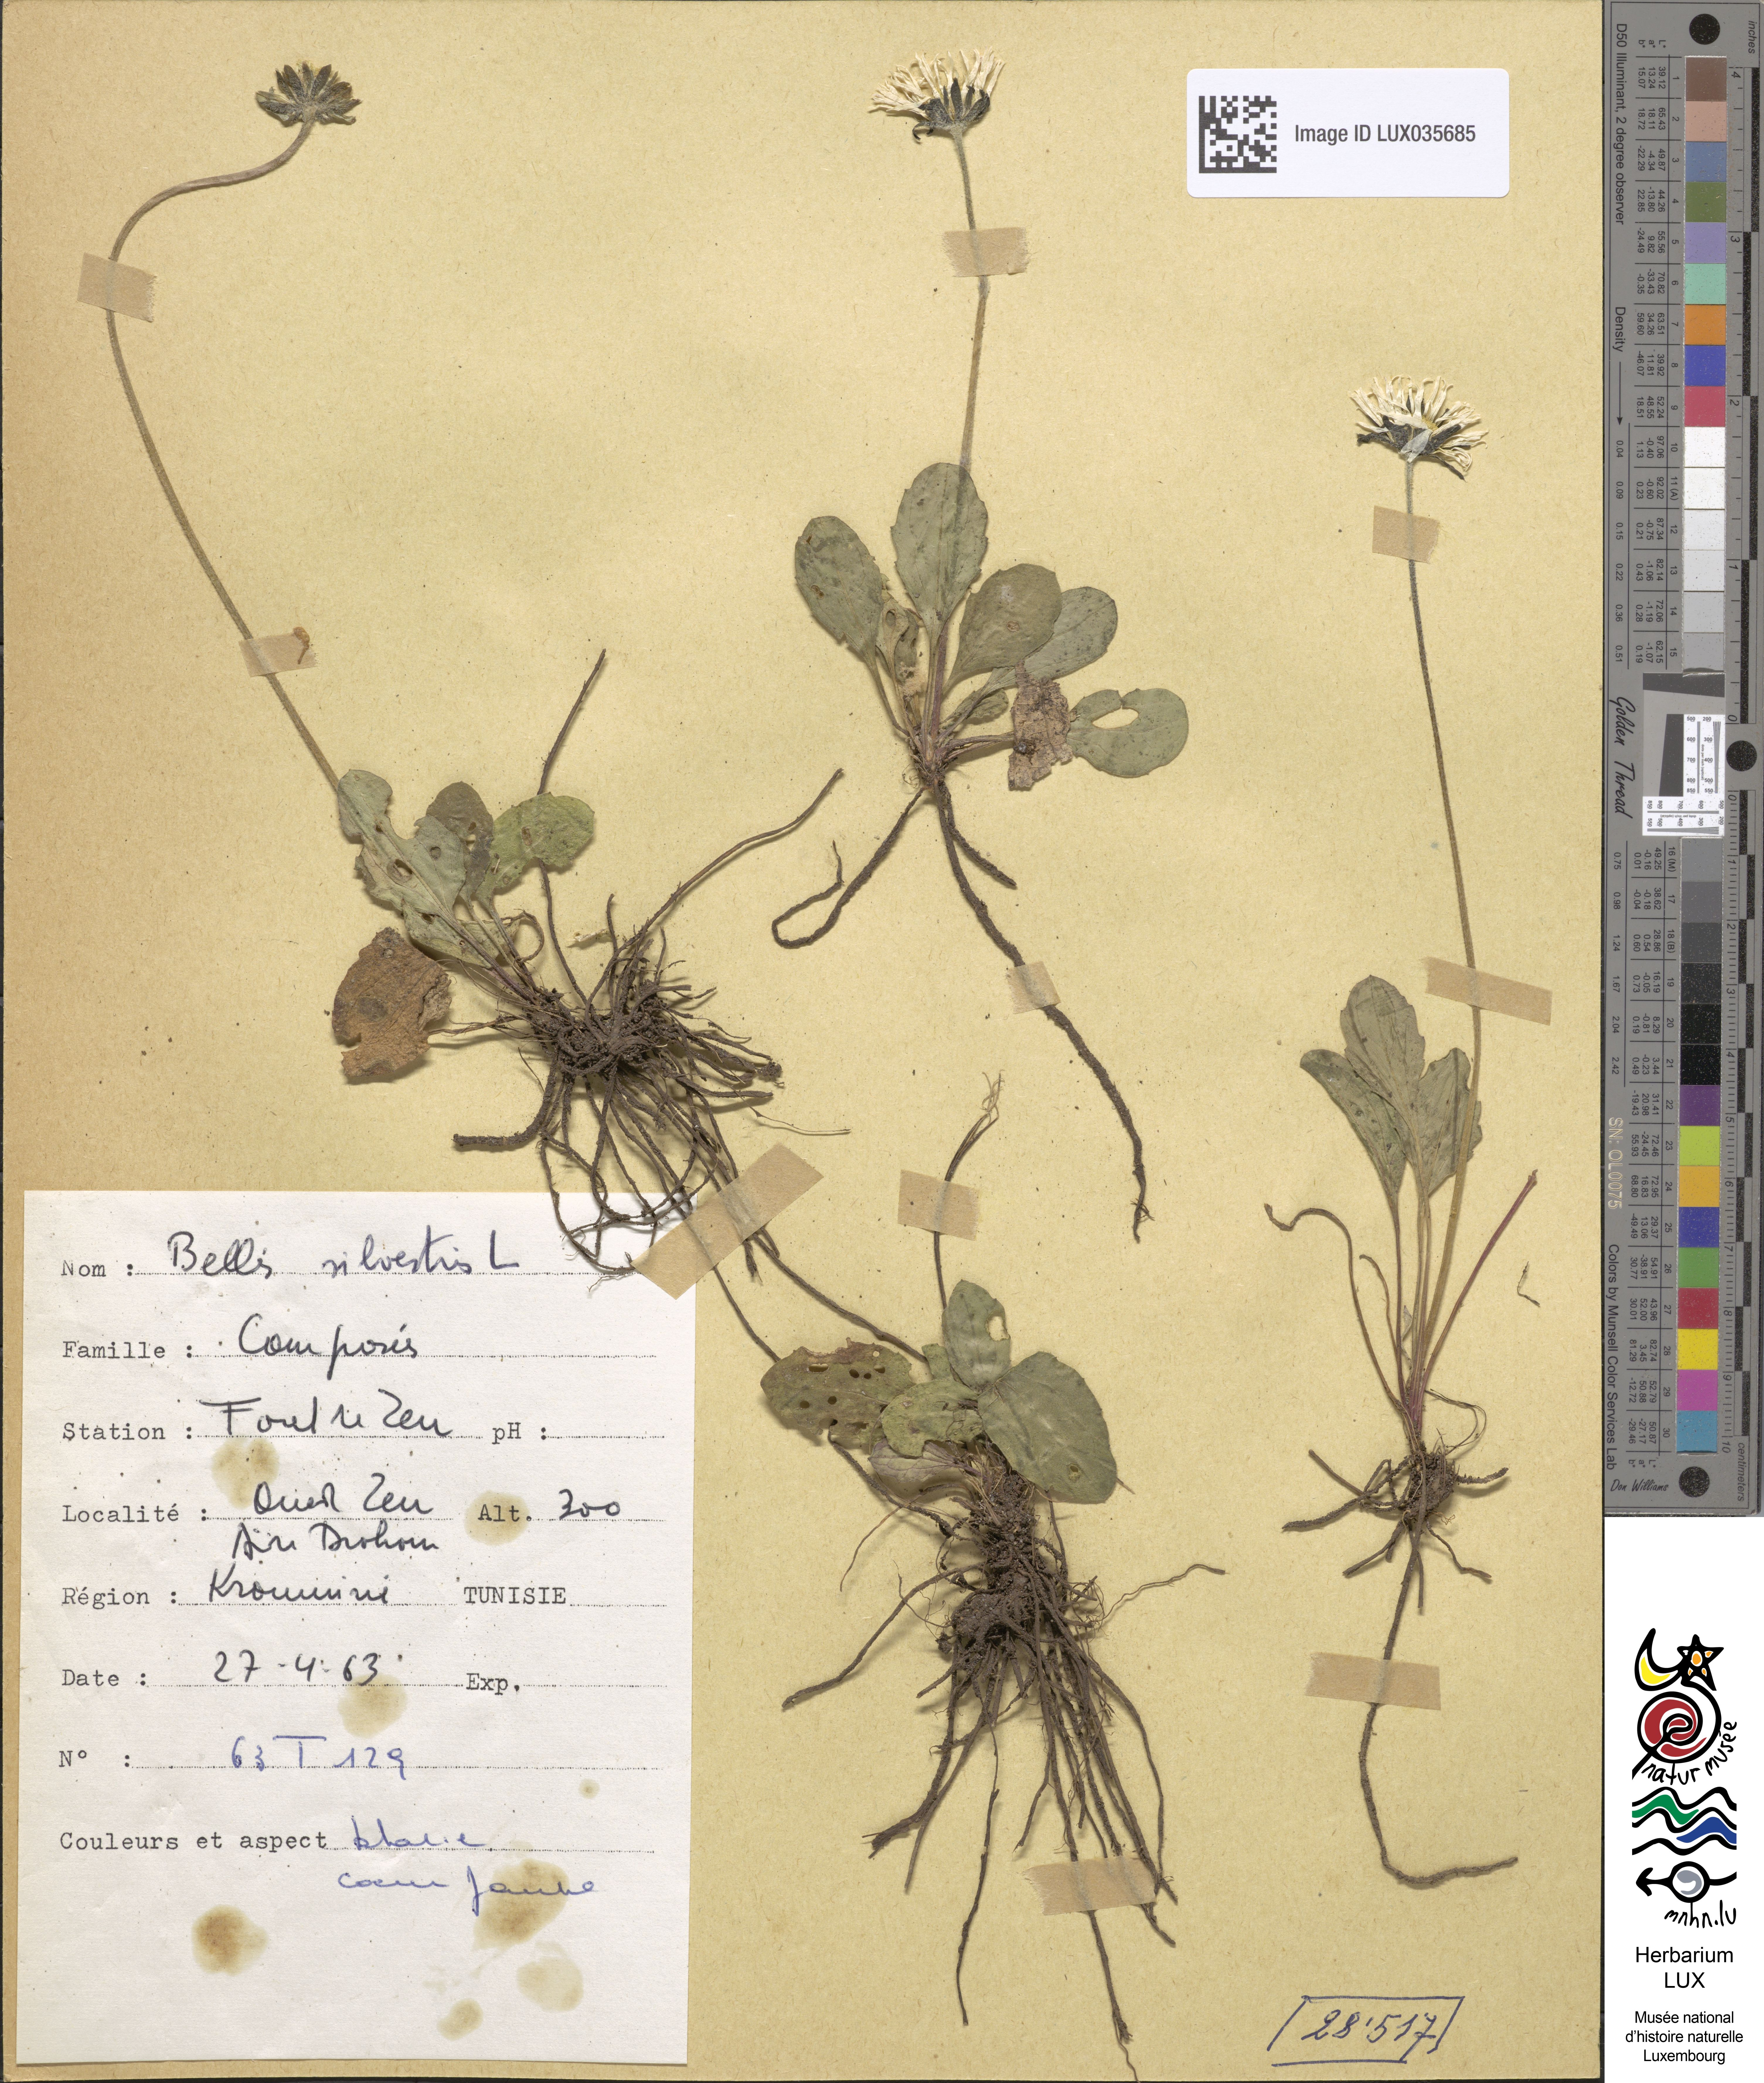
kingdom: Plantae
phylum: Tracheophyta
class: Magnoliopsida
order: Asterales
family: Asteraceae
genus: Bellis
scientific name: Bellis sylvestris
